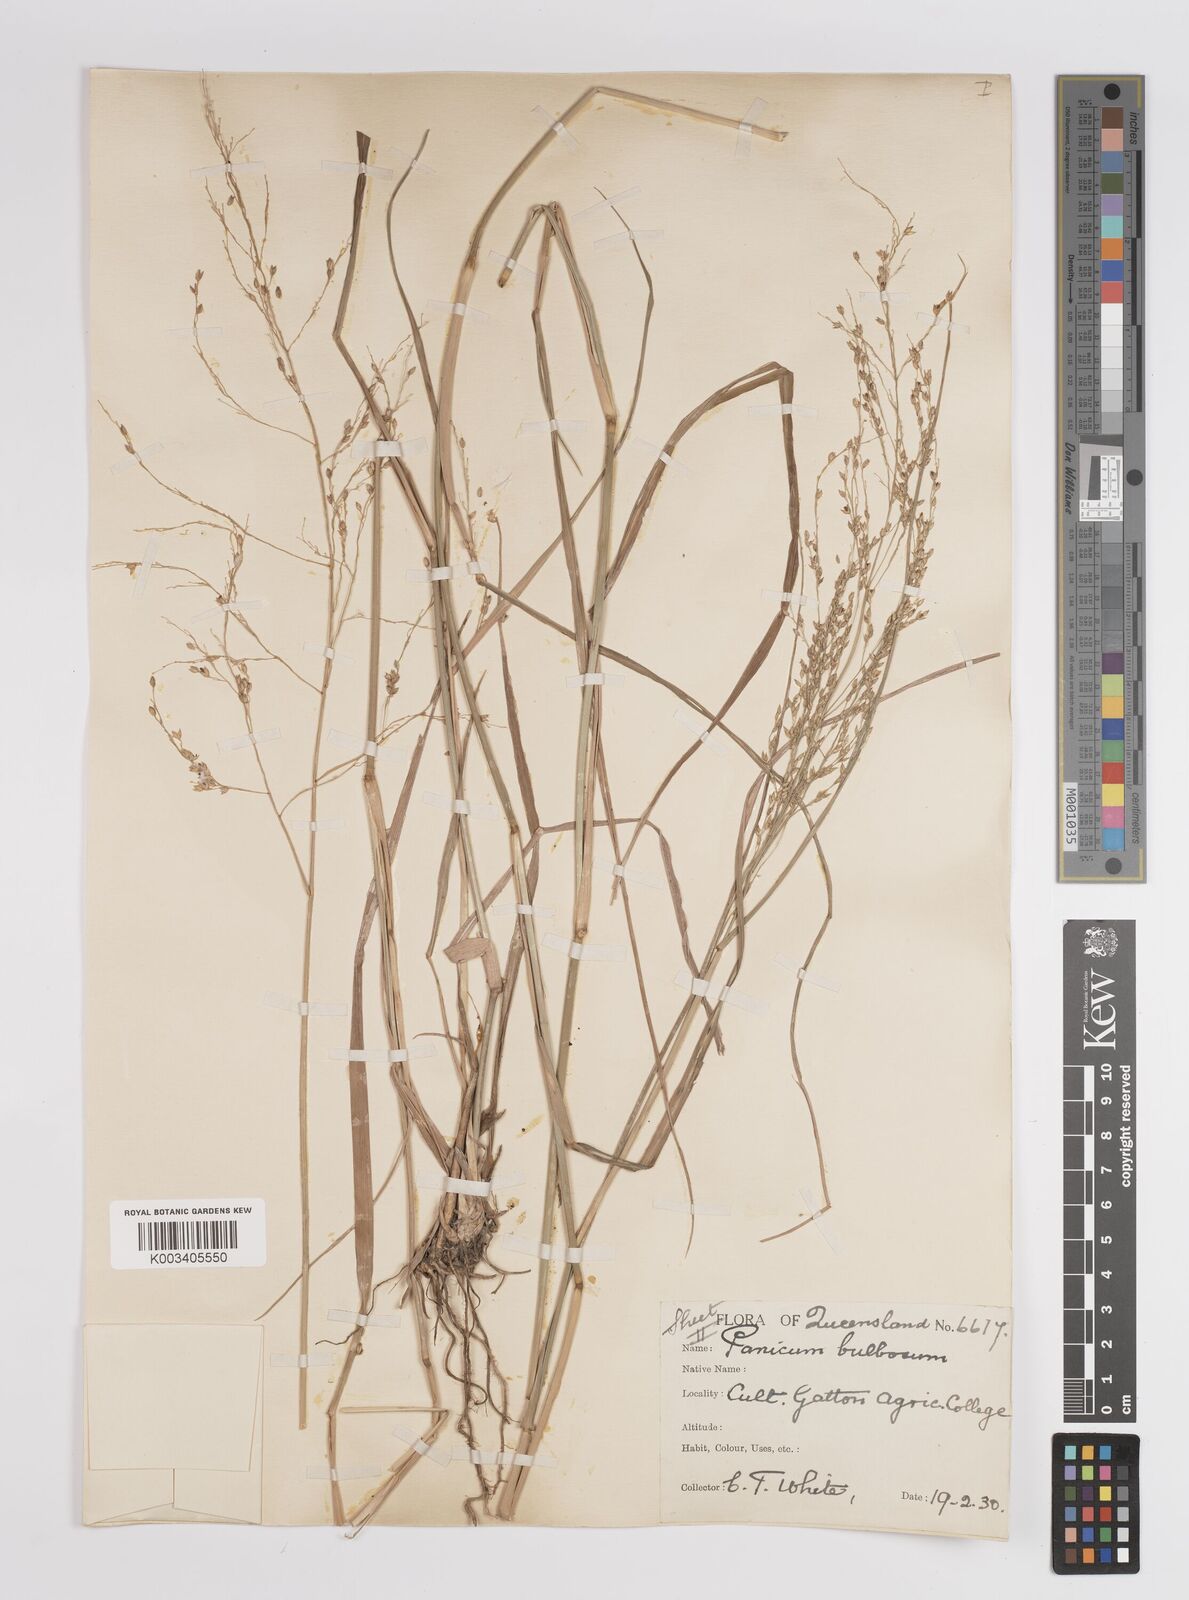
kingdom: Plantae
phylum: Tracheophyta
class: Liliopsida
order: Poales
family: Poaceae
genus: Panicum
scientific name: Panicum
